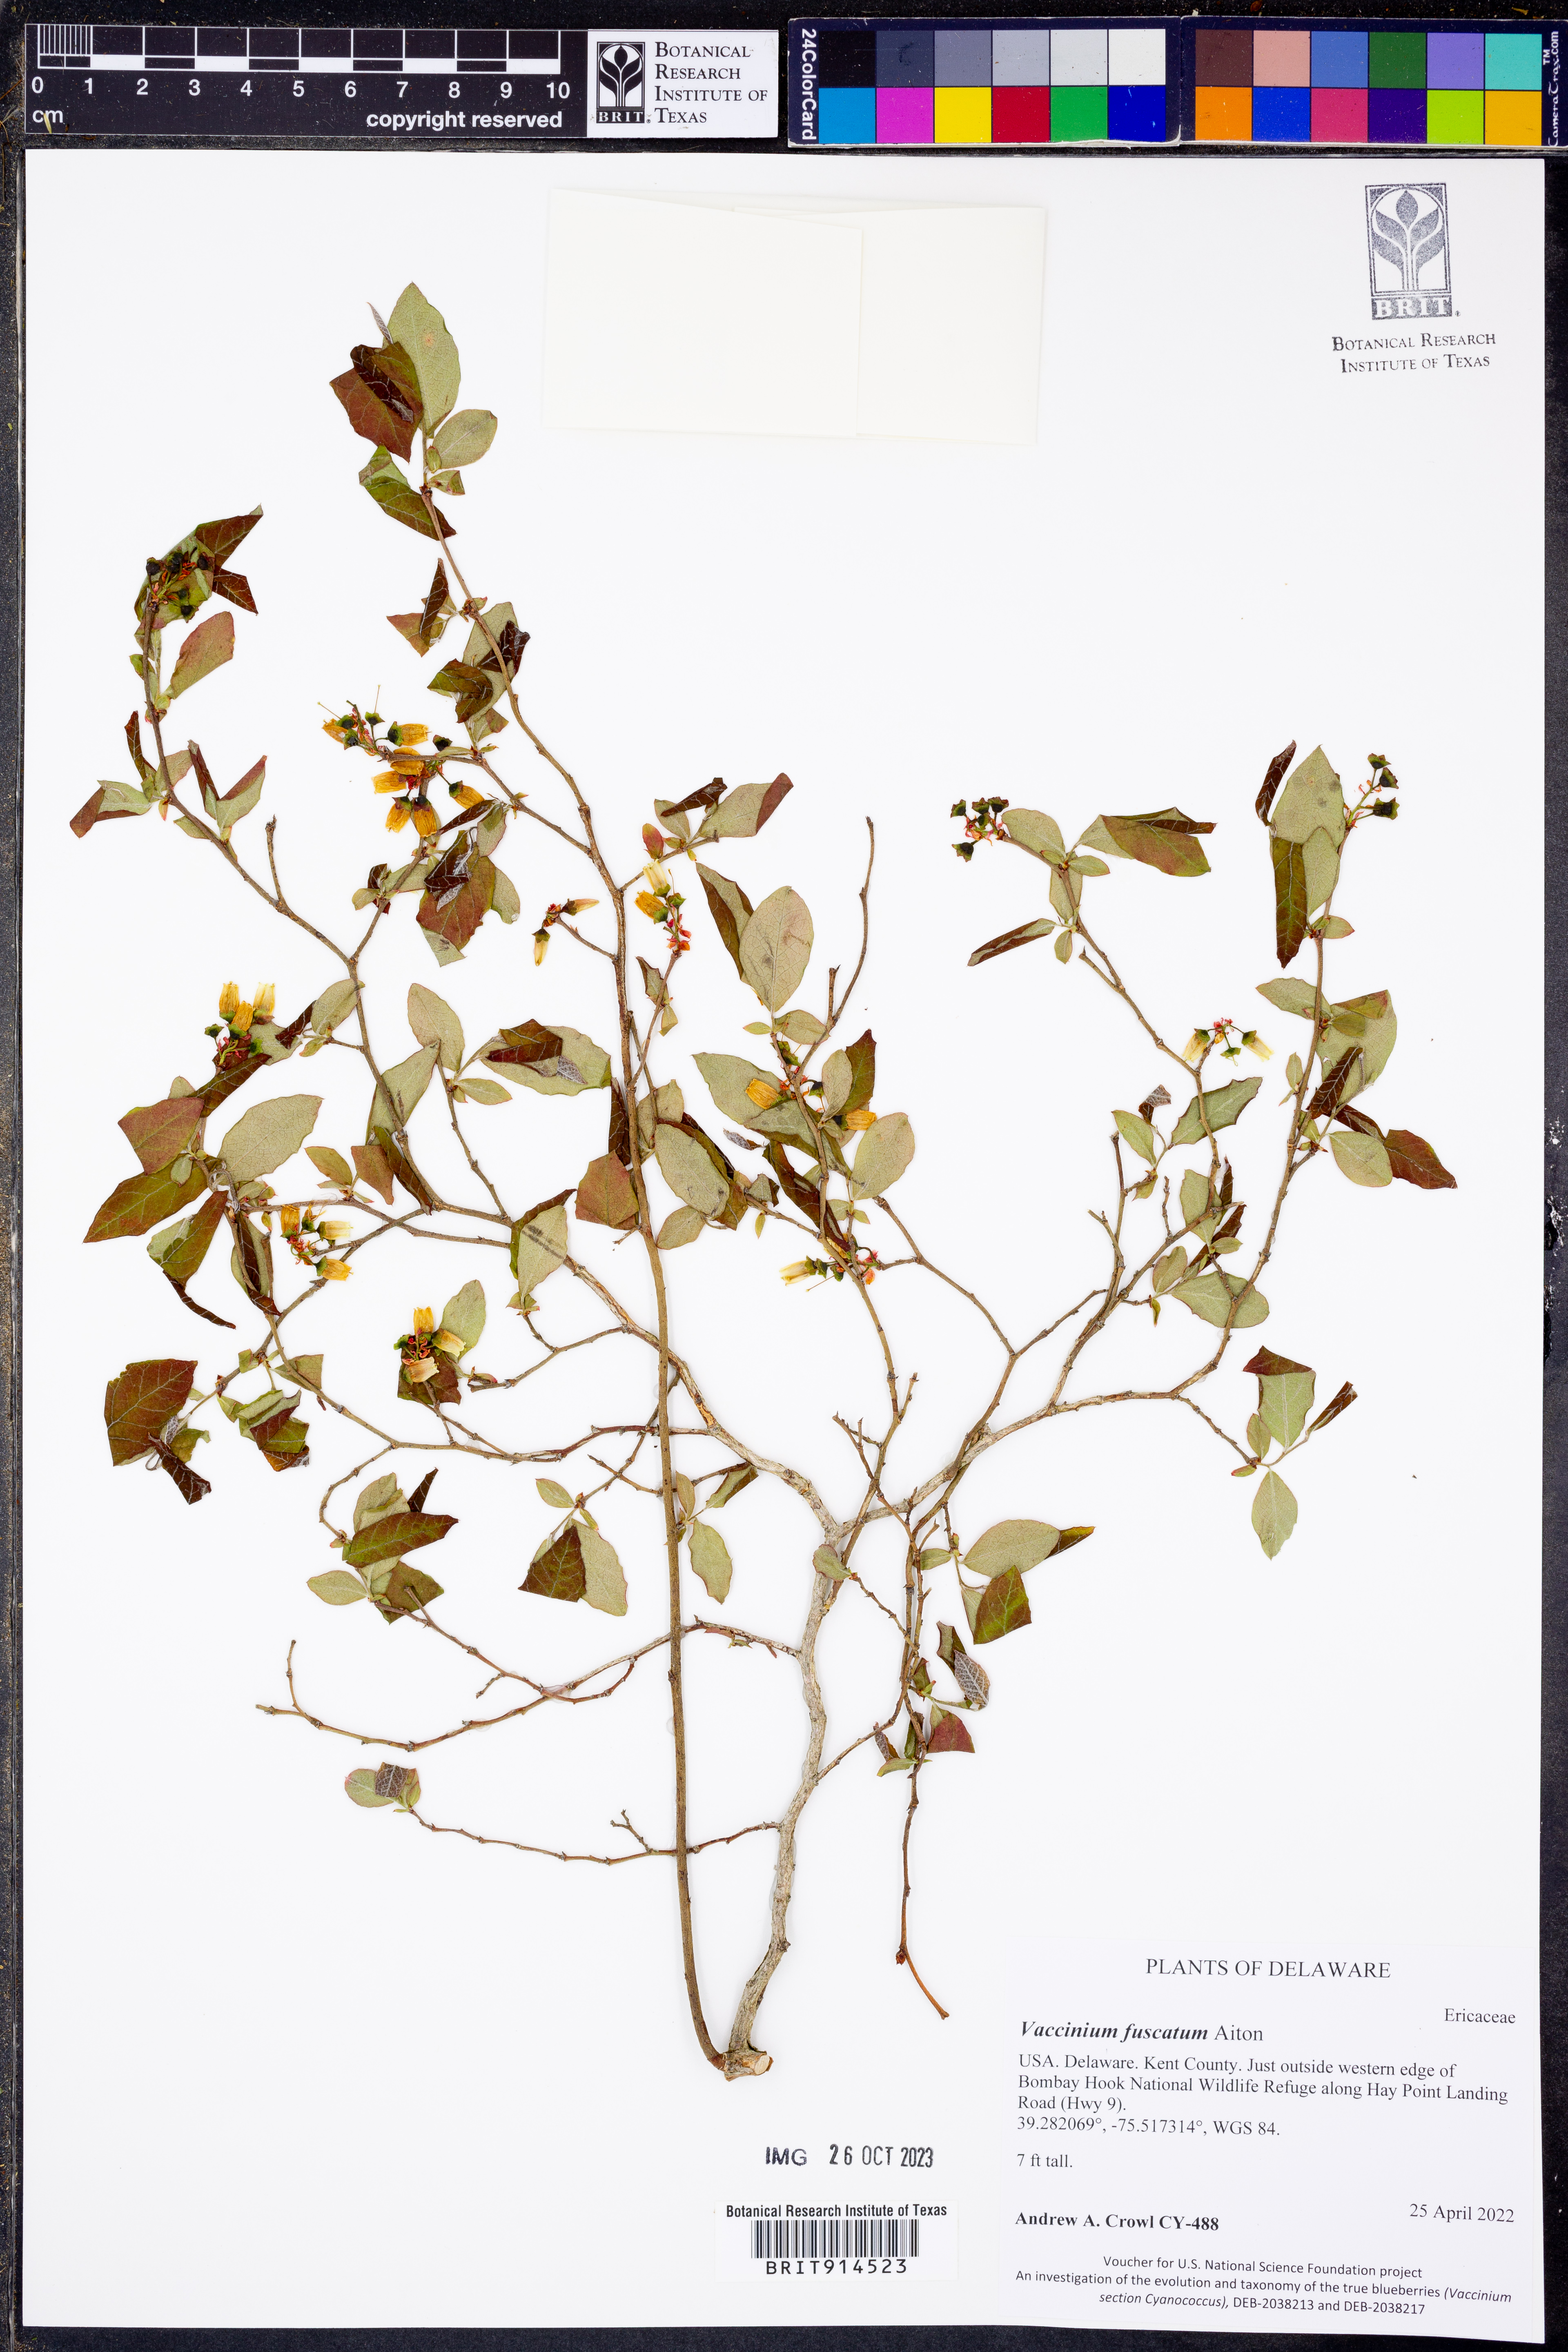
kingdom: Plantae
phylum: Tracheophyta
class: Magnoliopsida
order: Ericales
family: Ericaceae
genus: Vaccinium
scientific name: Vaccinium corymbosum
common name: Blueberry
